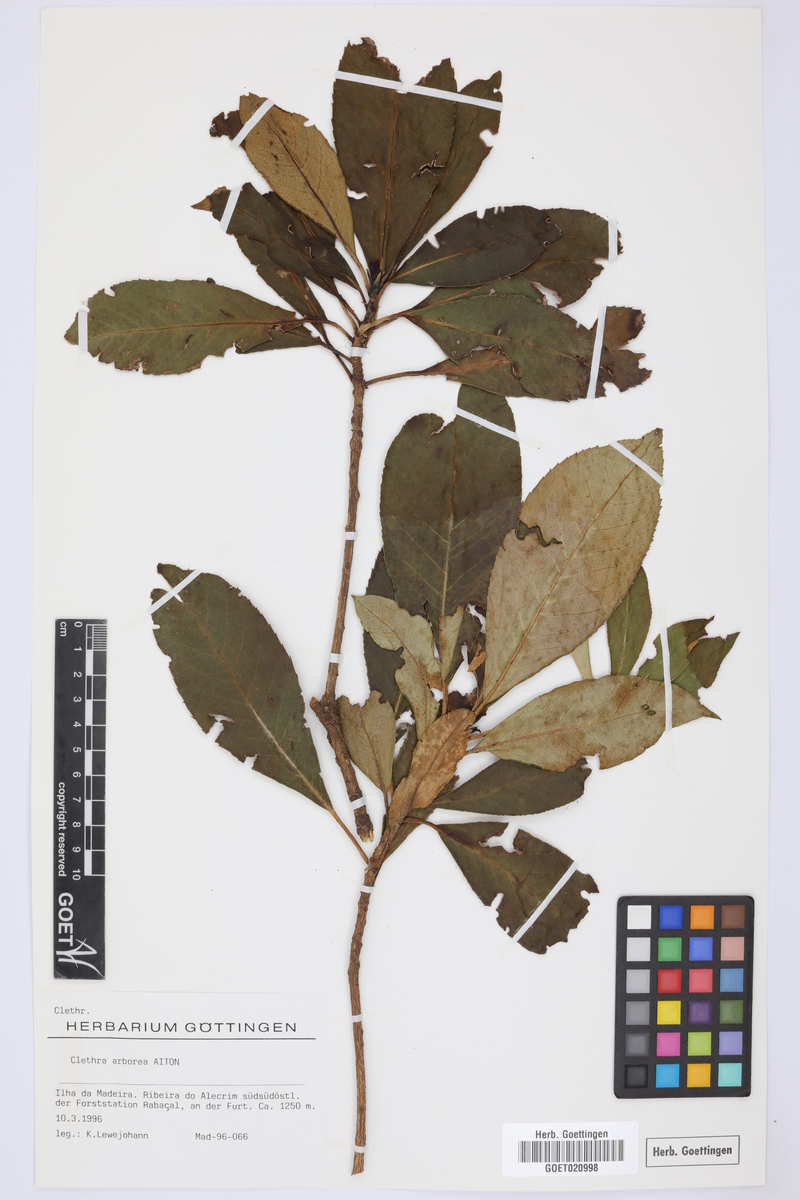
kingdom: Plantae
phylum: Tracheophyta
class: Magnoliopsida
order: Ericales
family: Clethraceae
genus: Clethra
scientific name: Clethra arborea
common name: Lily-of-the-valley-tree
